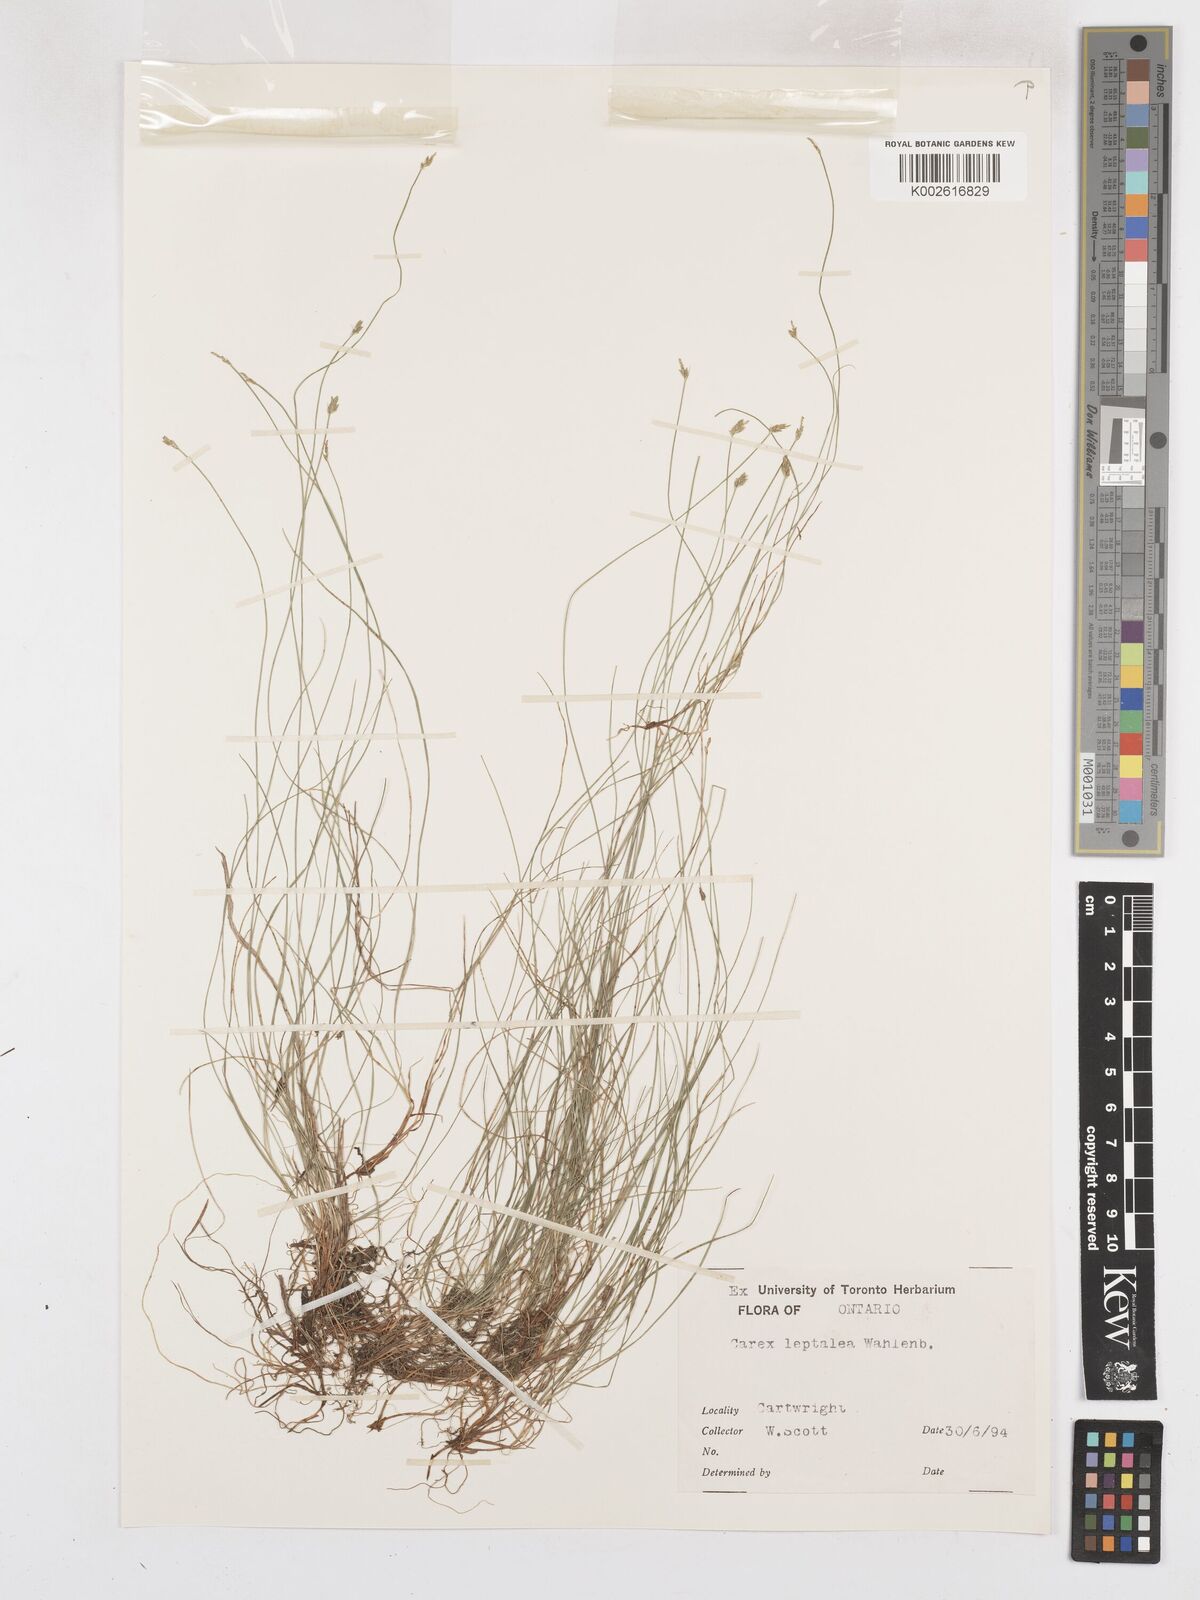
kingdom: Plantae
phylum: Tracheophyta
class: Liliopsida
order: Poales
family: Cyperaceae
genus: Carex
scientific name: Carex leptalea
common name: Bristly-stalked sedge
